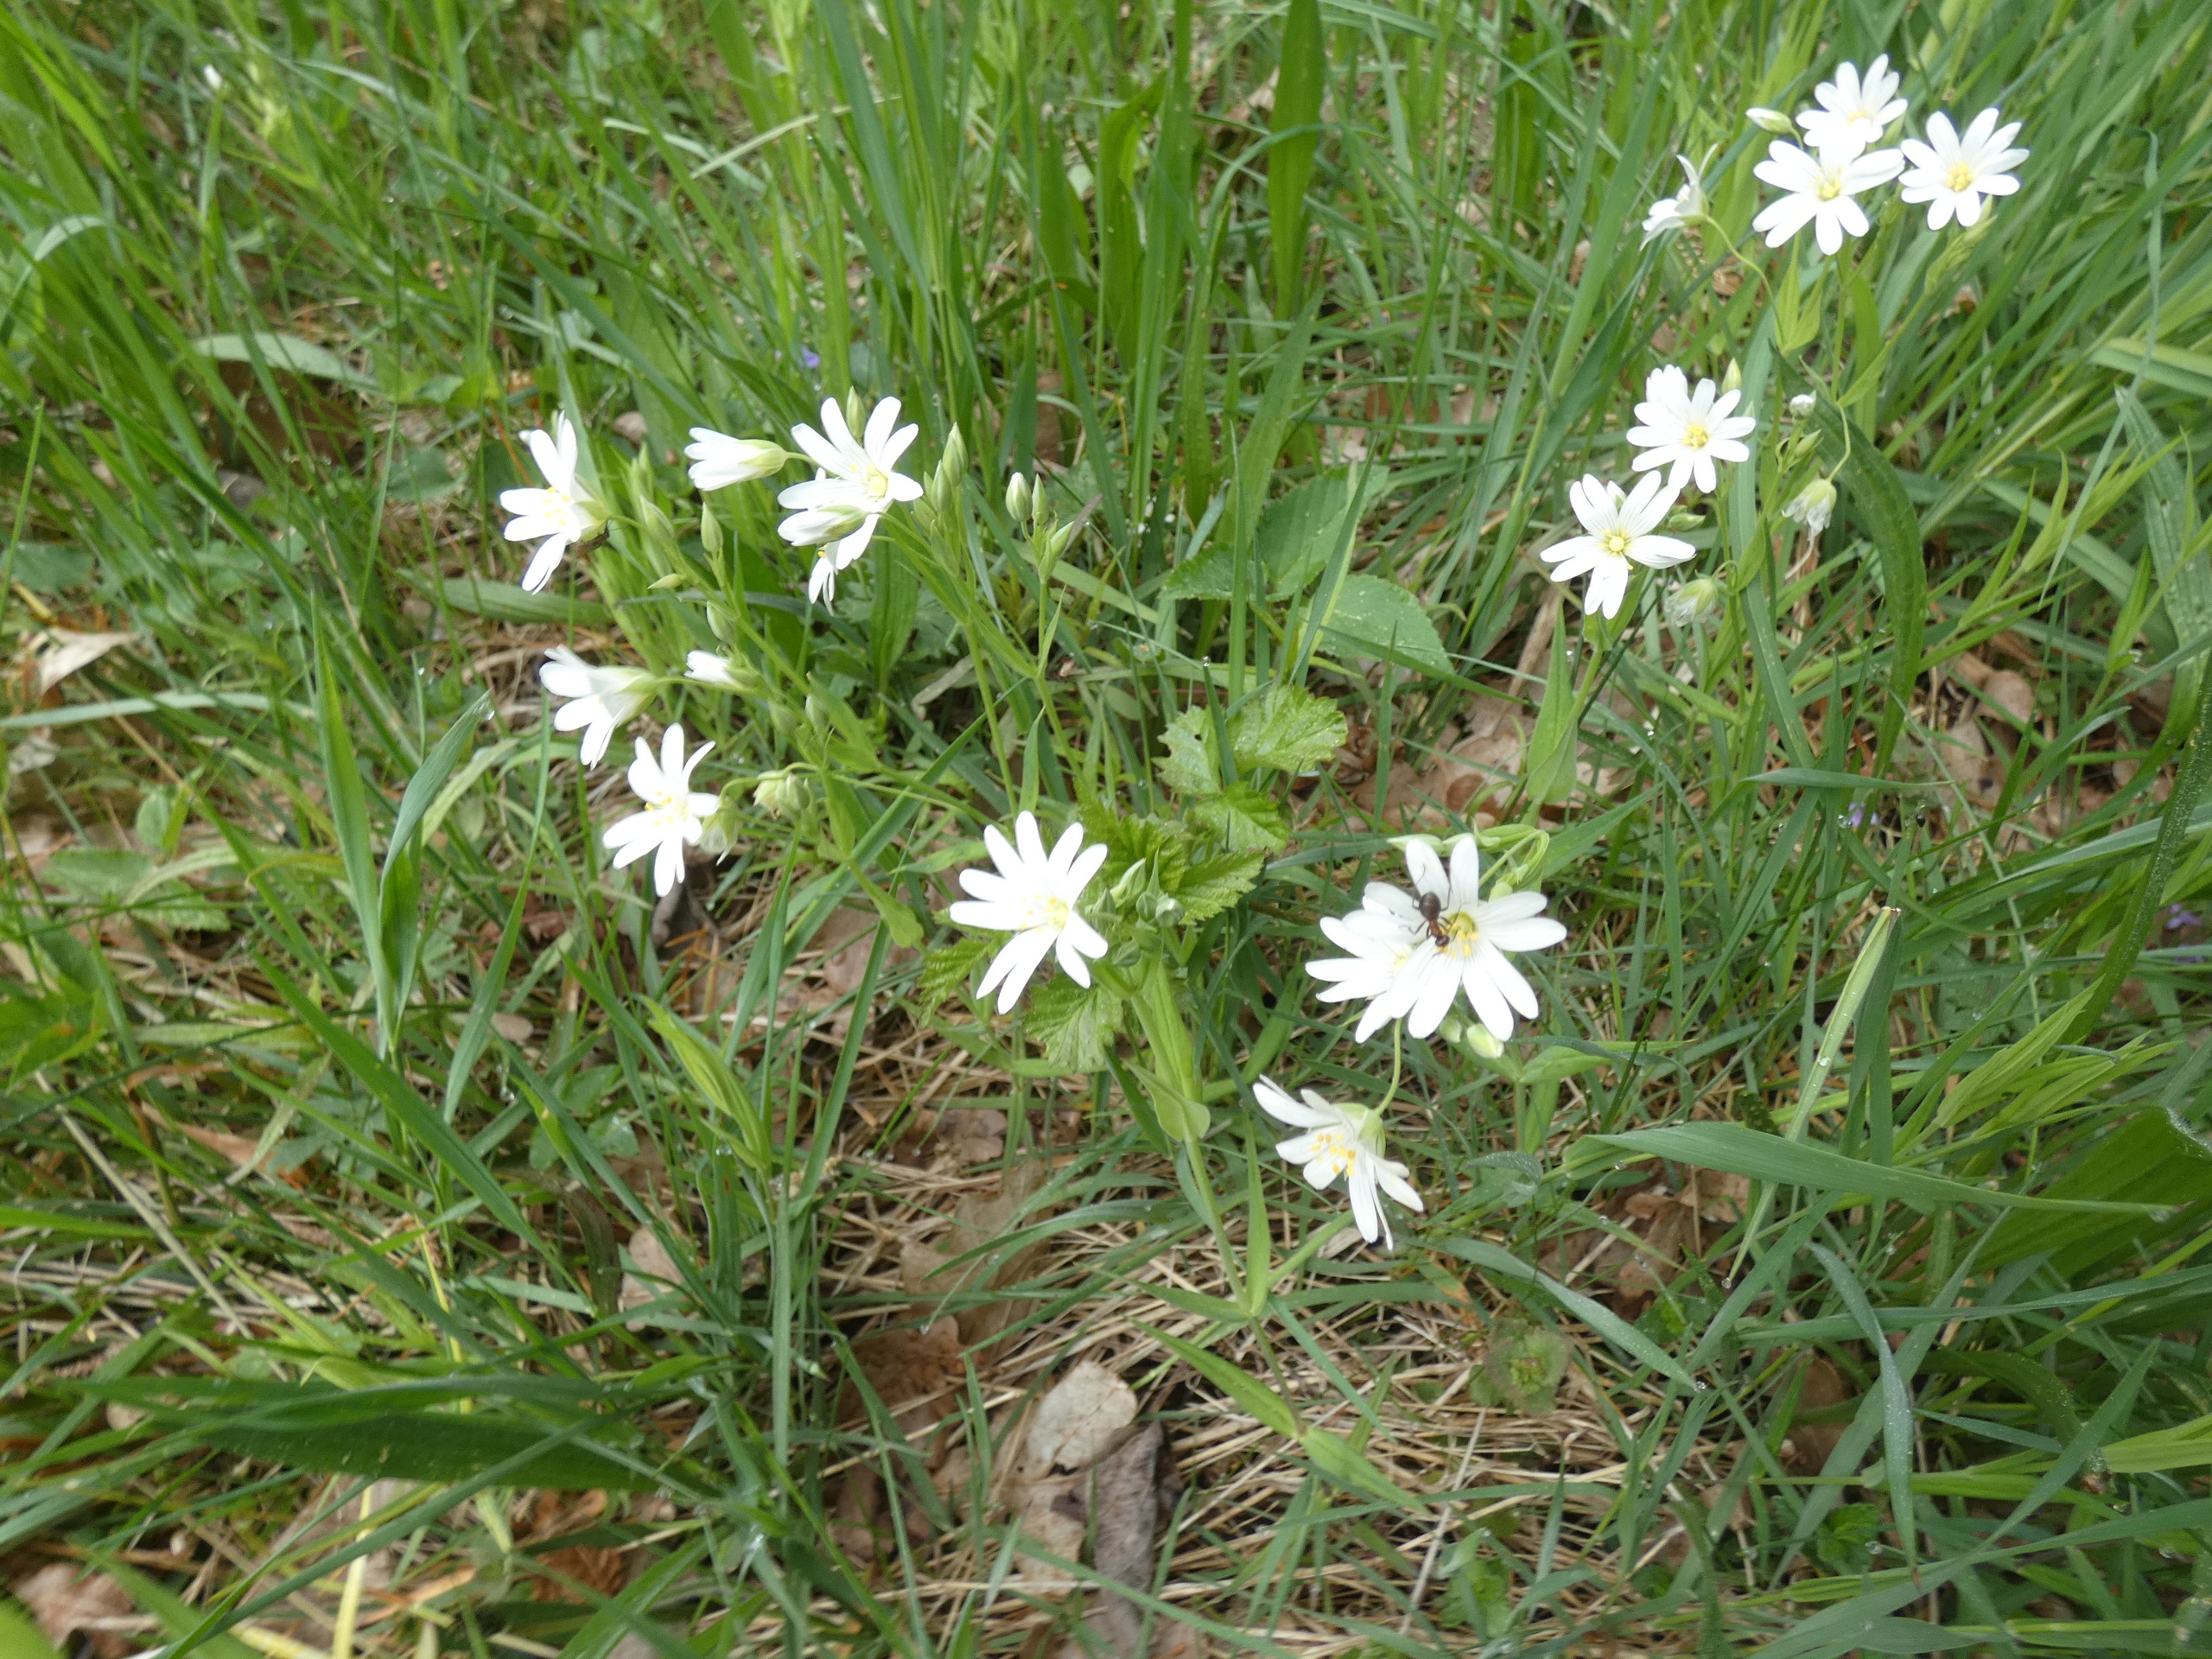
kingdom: Plantae
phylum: Tracheophyta
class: Magnoliopsida
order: Caryophyllales
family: Caryophyllaceae
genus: Rabelera
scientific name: Rabelera holostea
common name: Stor fladstjerne
